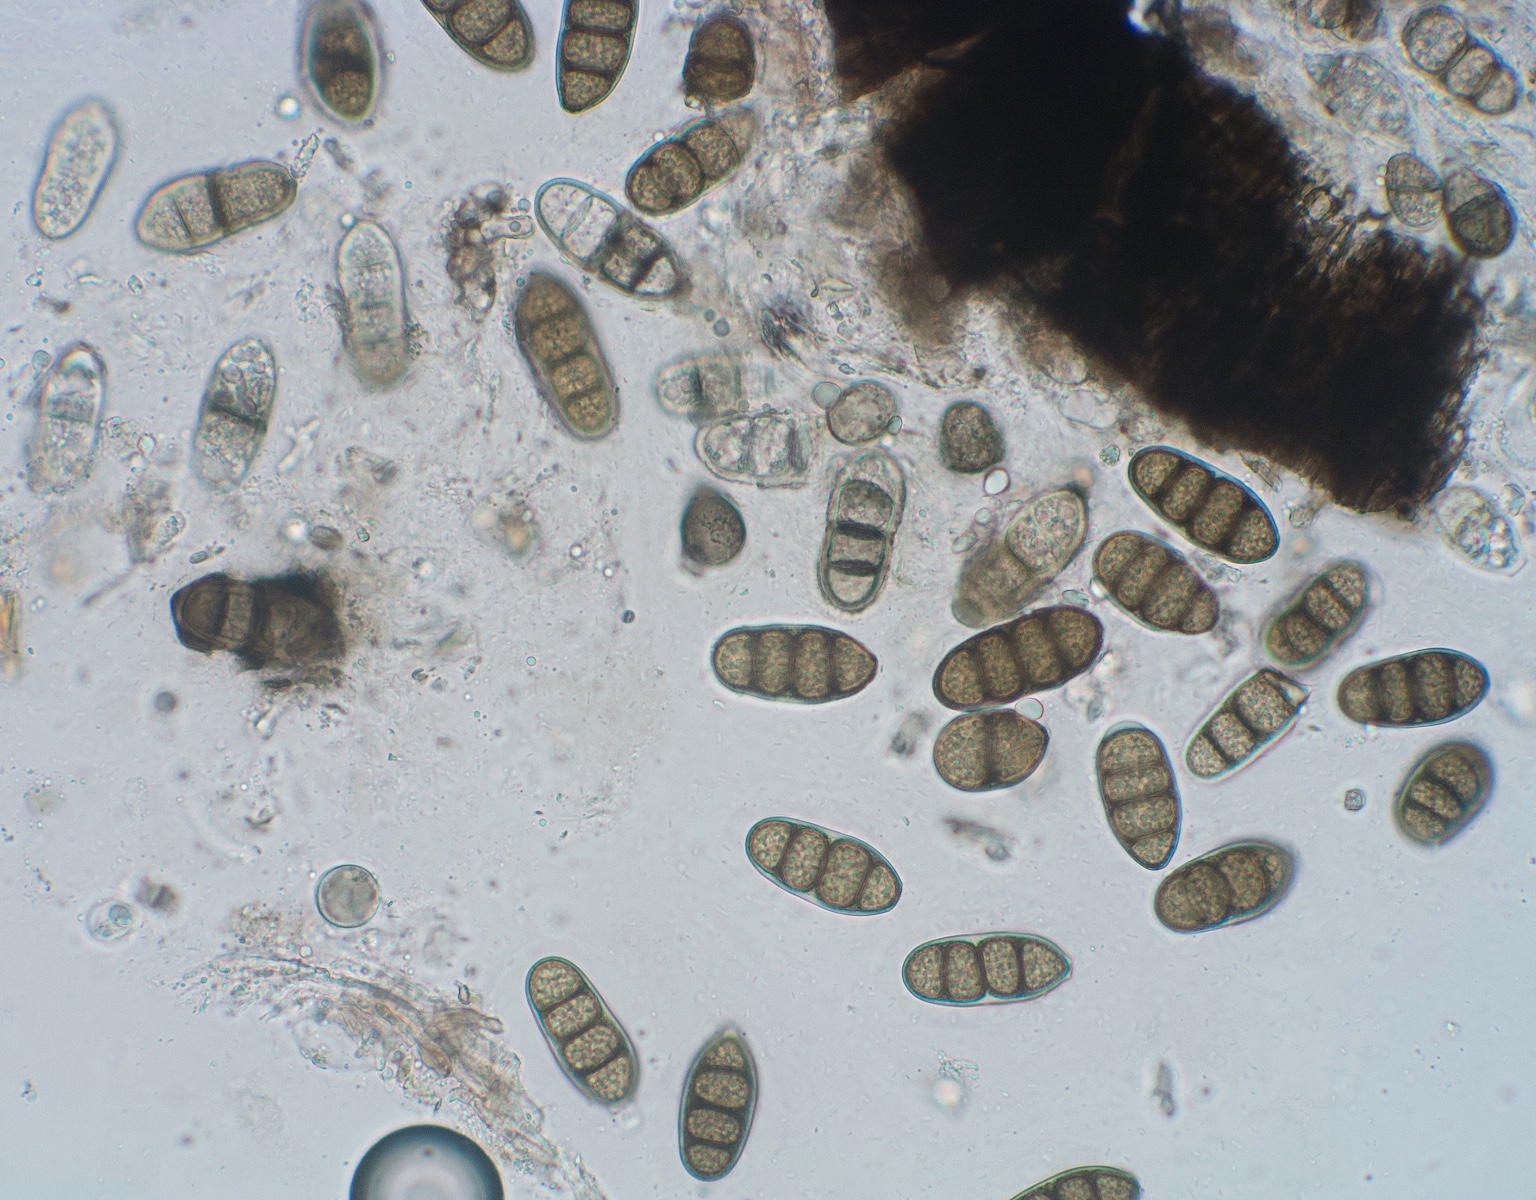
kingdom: Fungi
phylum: Ascomycota
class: Dothideomycetes
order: Pleosporales
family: Macrodiplodiopsidaceae
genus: Macrodiplodiopsis
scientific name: Macrodiplodiopsis desmazieri
